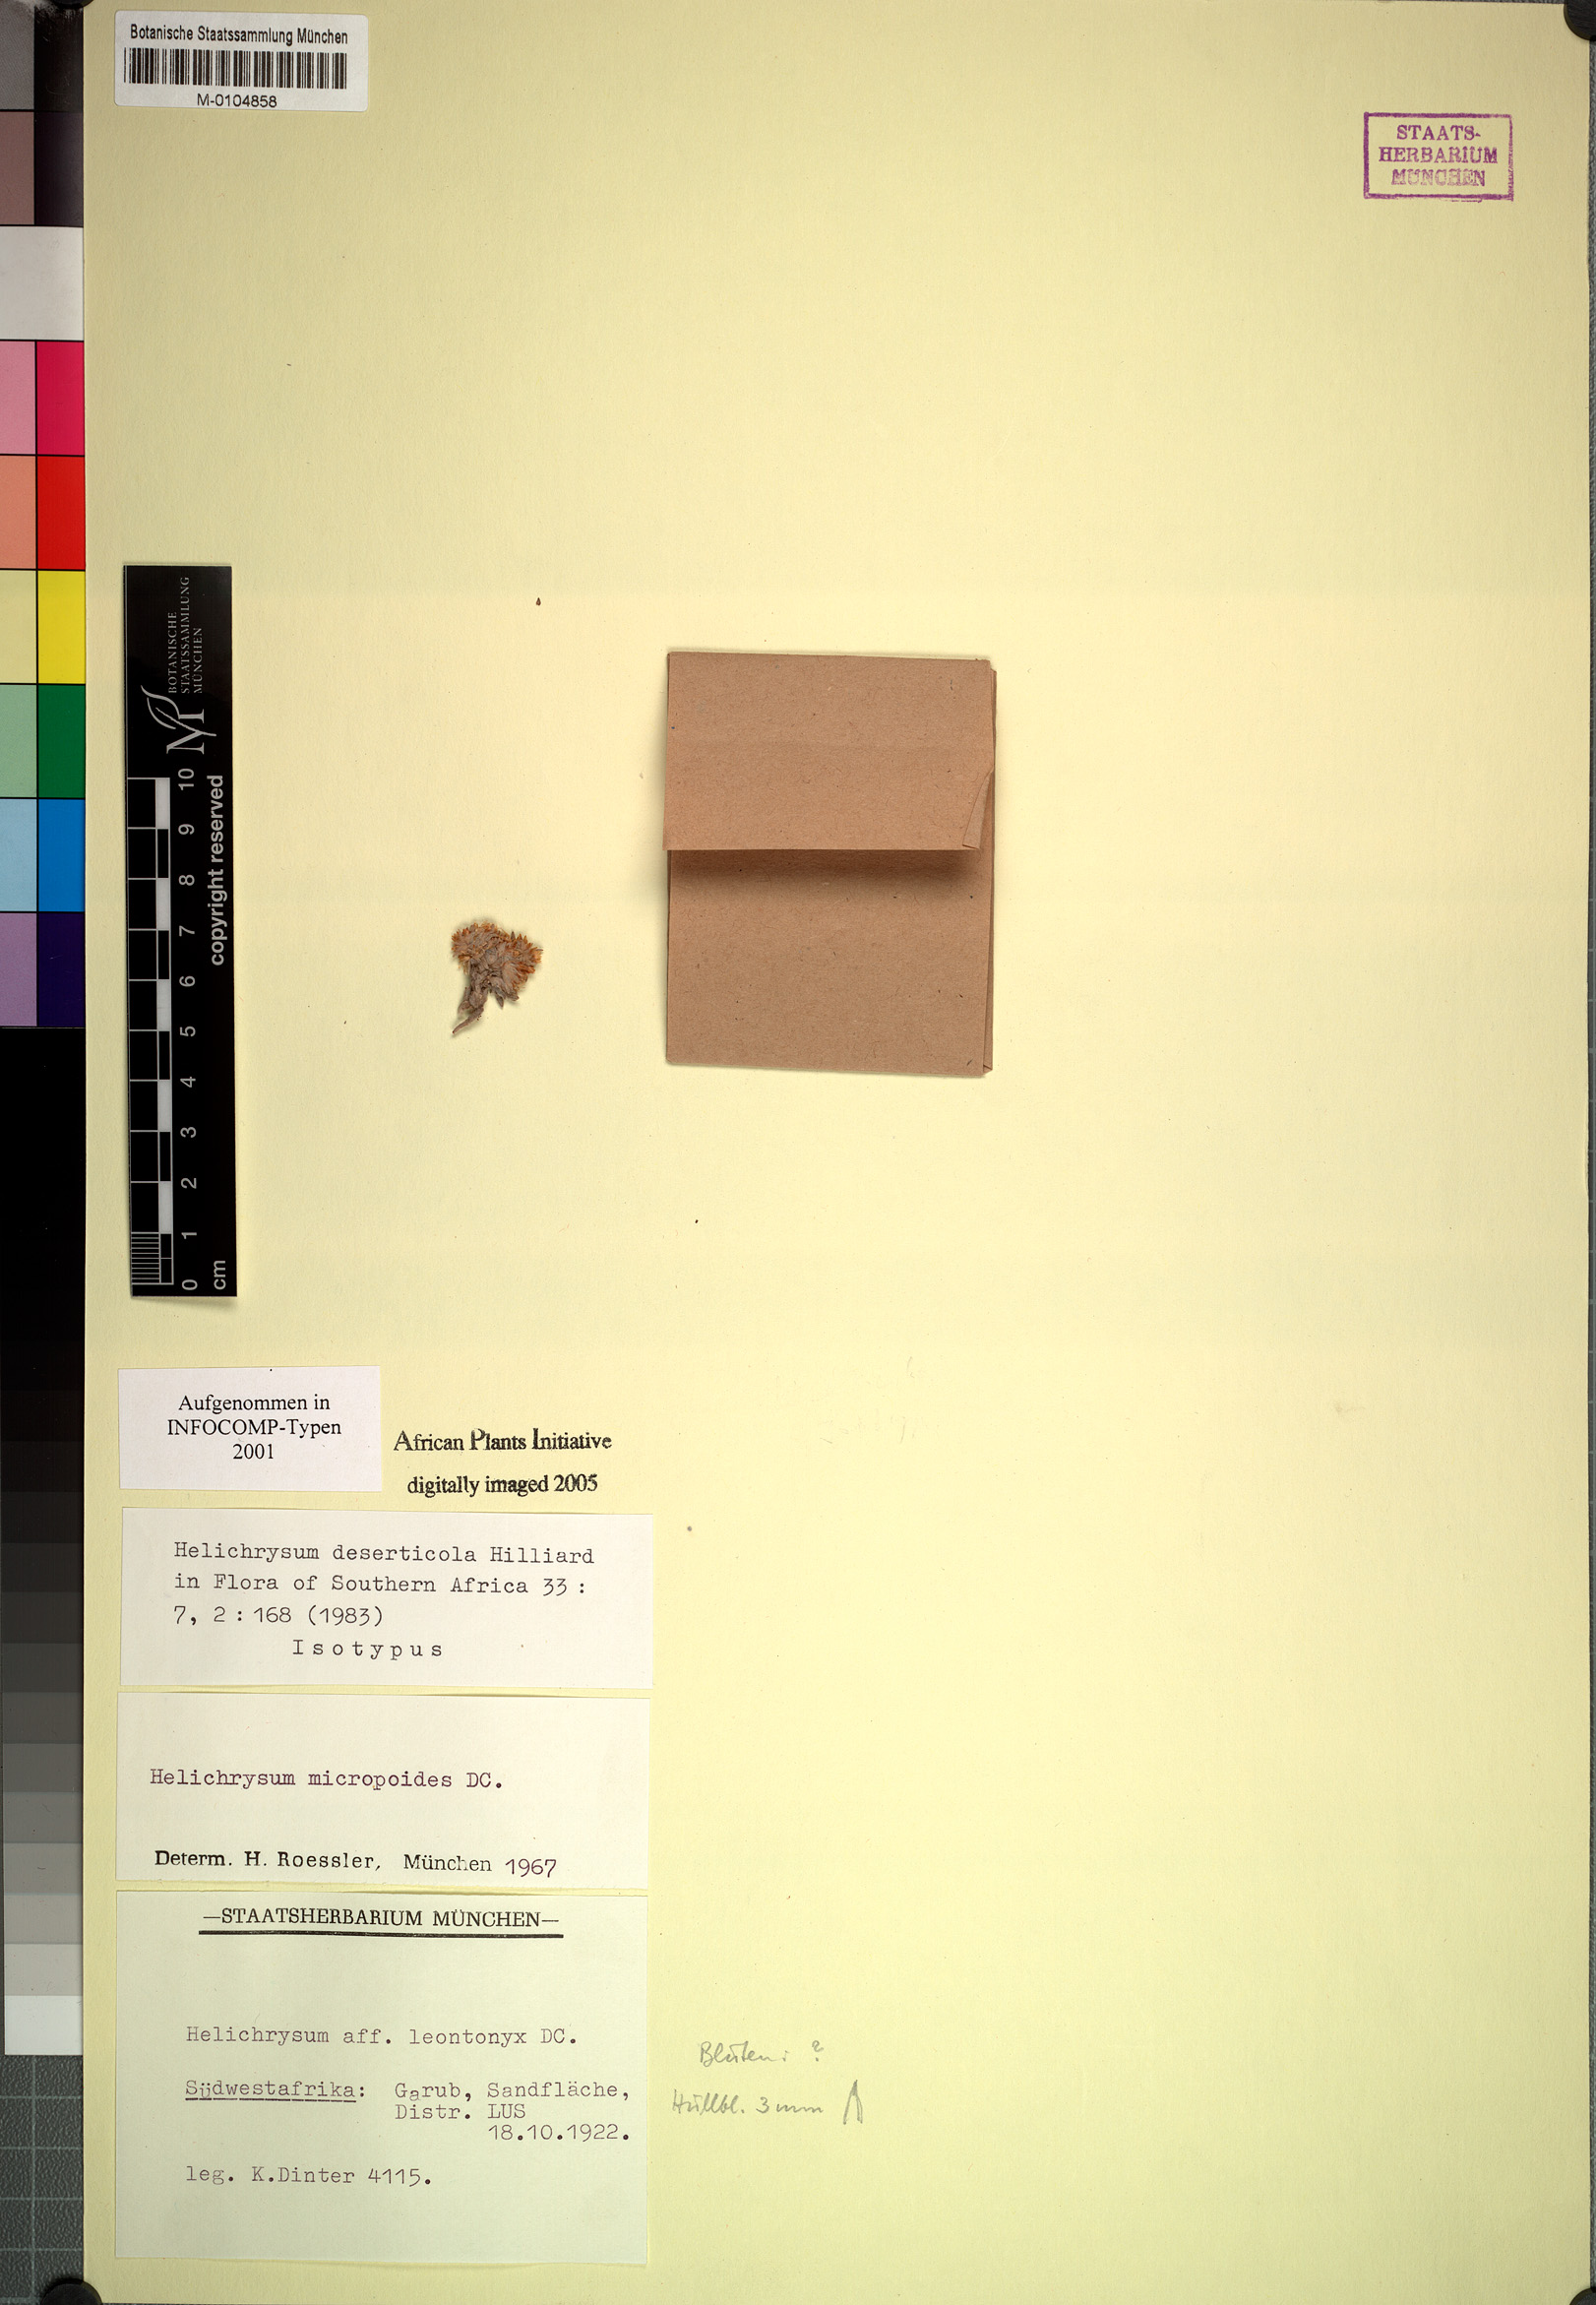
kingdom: Plantae
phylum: Tracheophyta
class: Magnoliopsida
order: Asterales
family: Asteraceae
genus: Helichrysum
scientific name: Helichrysum deserticola
